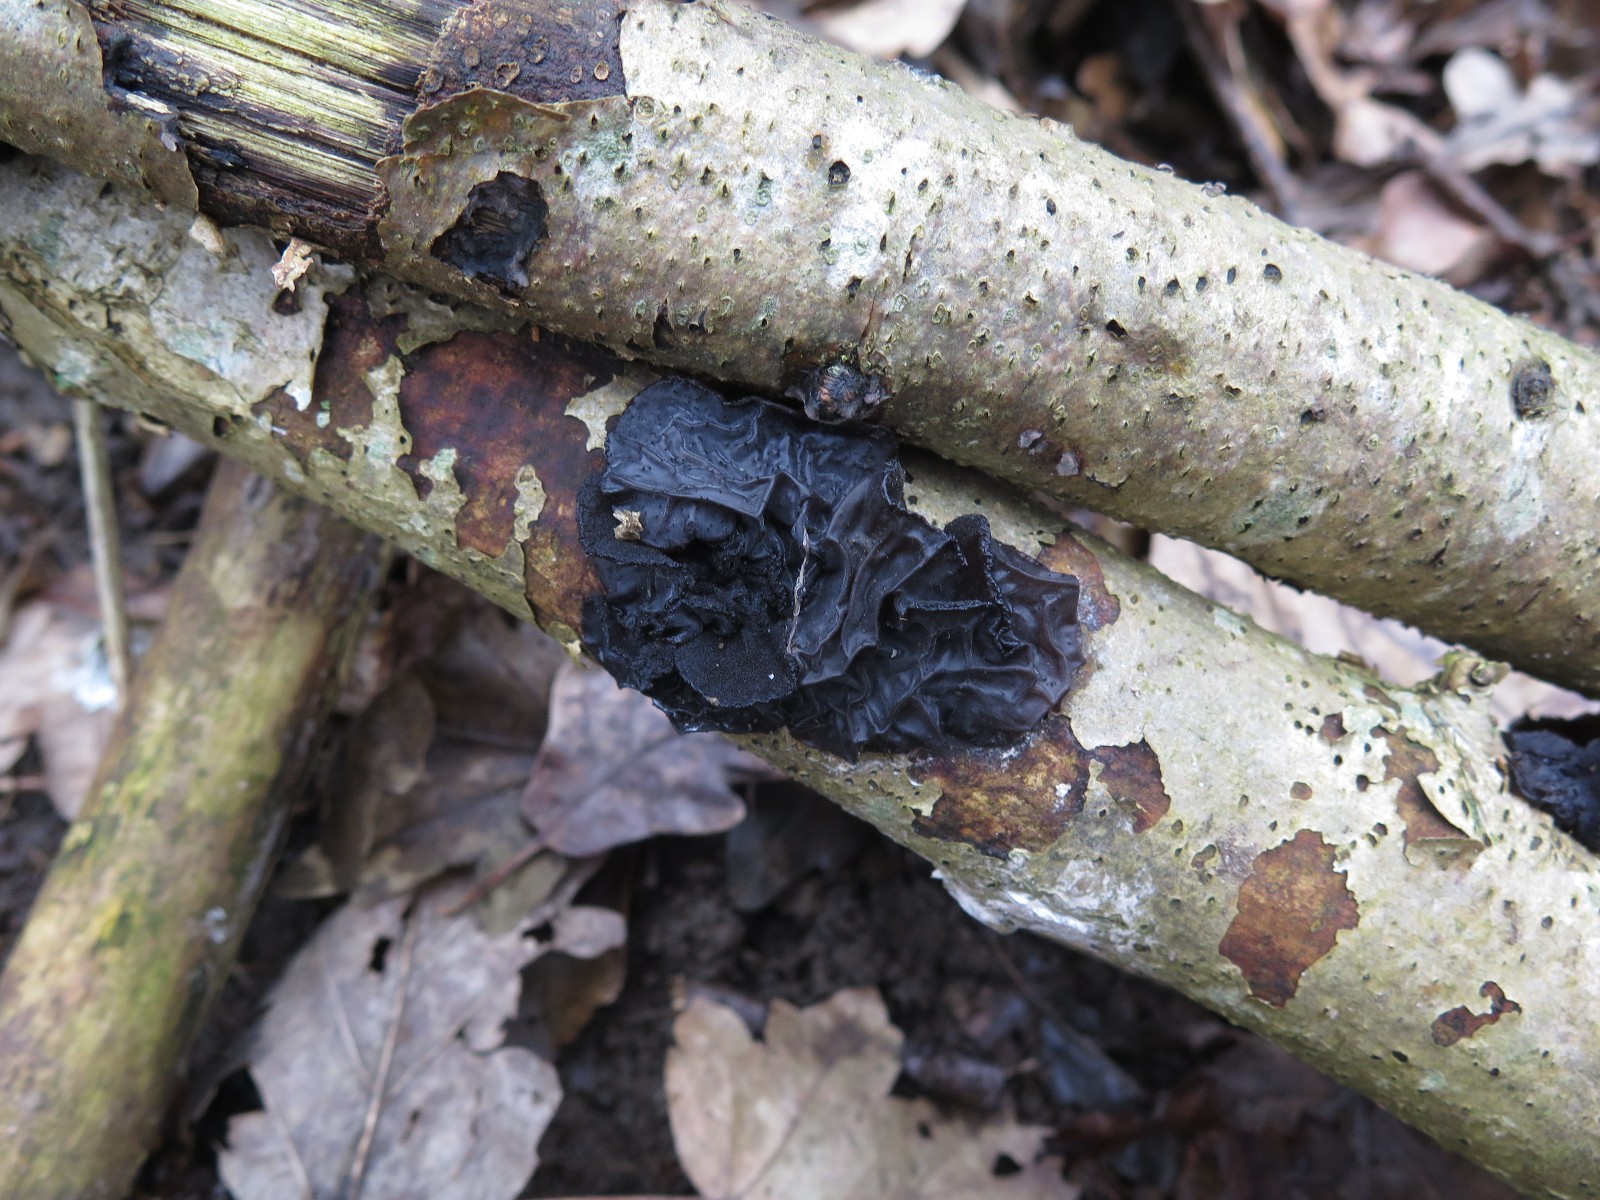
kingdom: Fungi
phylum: Basidiomycota
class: Agaricomycetes
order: Auriculariales
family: Auriculariaceae
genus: Exidia
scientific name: Exidia glandulosa
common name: ege-bævretop
